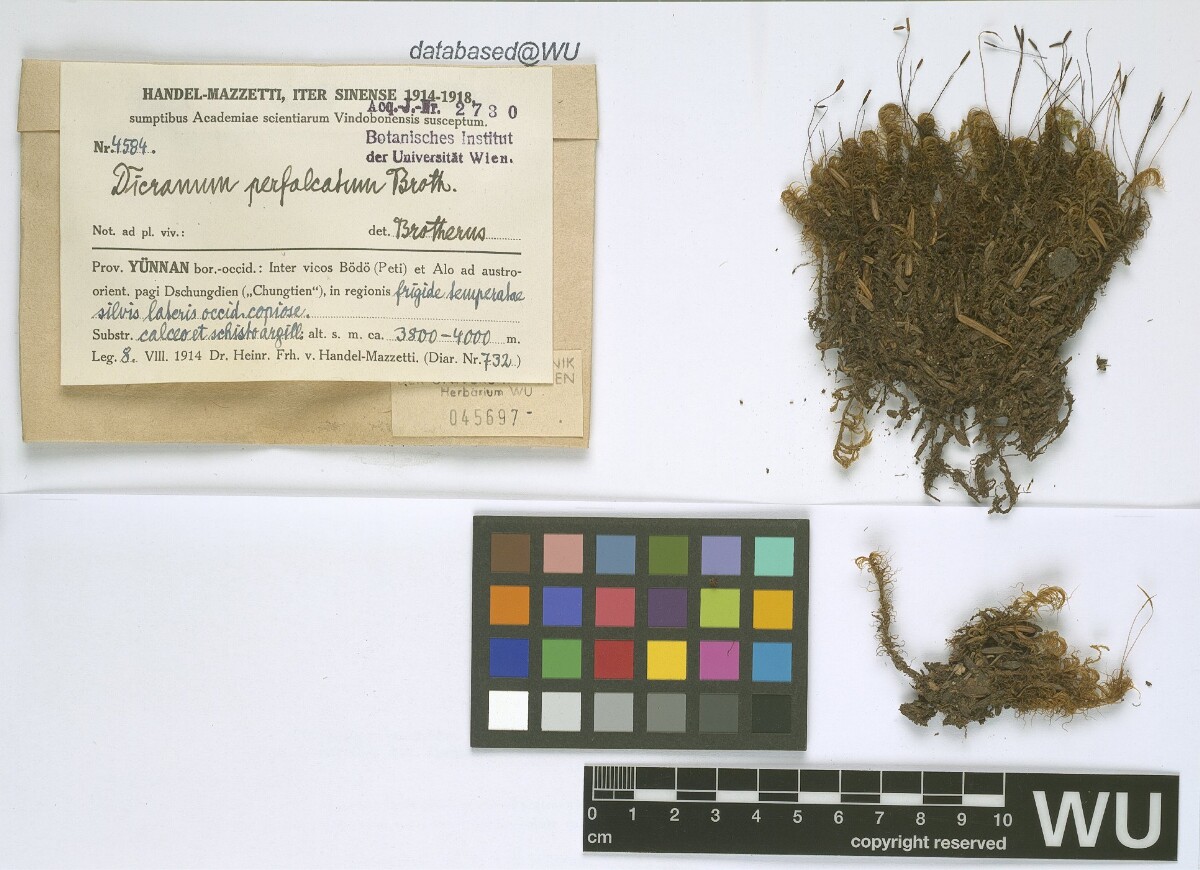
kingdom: Plantae
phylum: Bryophyta
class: Bryopsida
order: Dicranales
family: Dicranaceae
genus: Dicranum
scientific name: Dicranum drummondii
